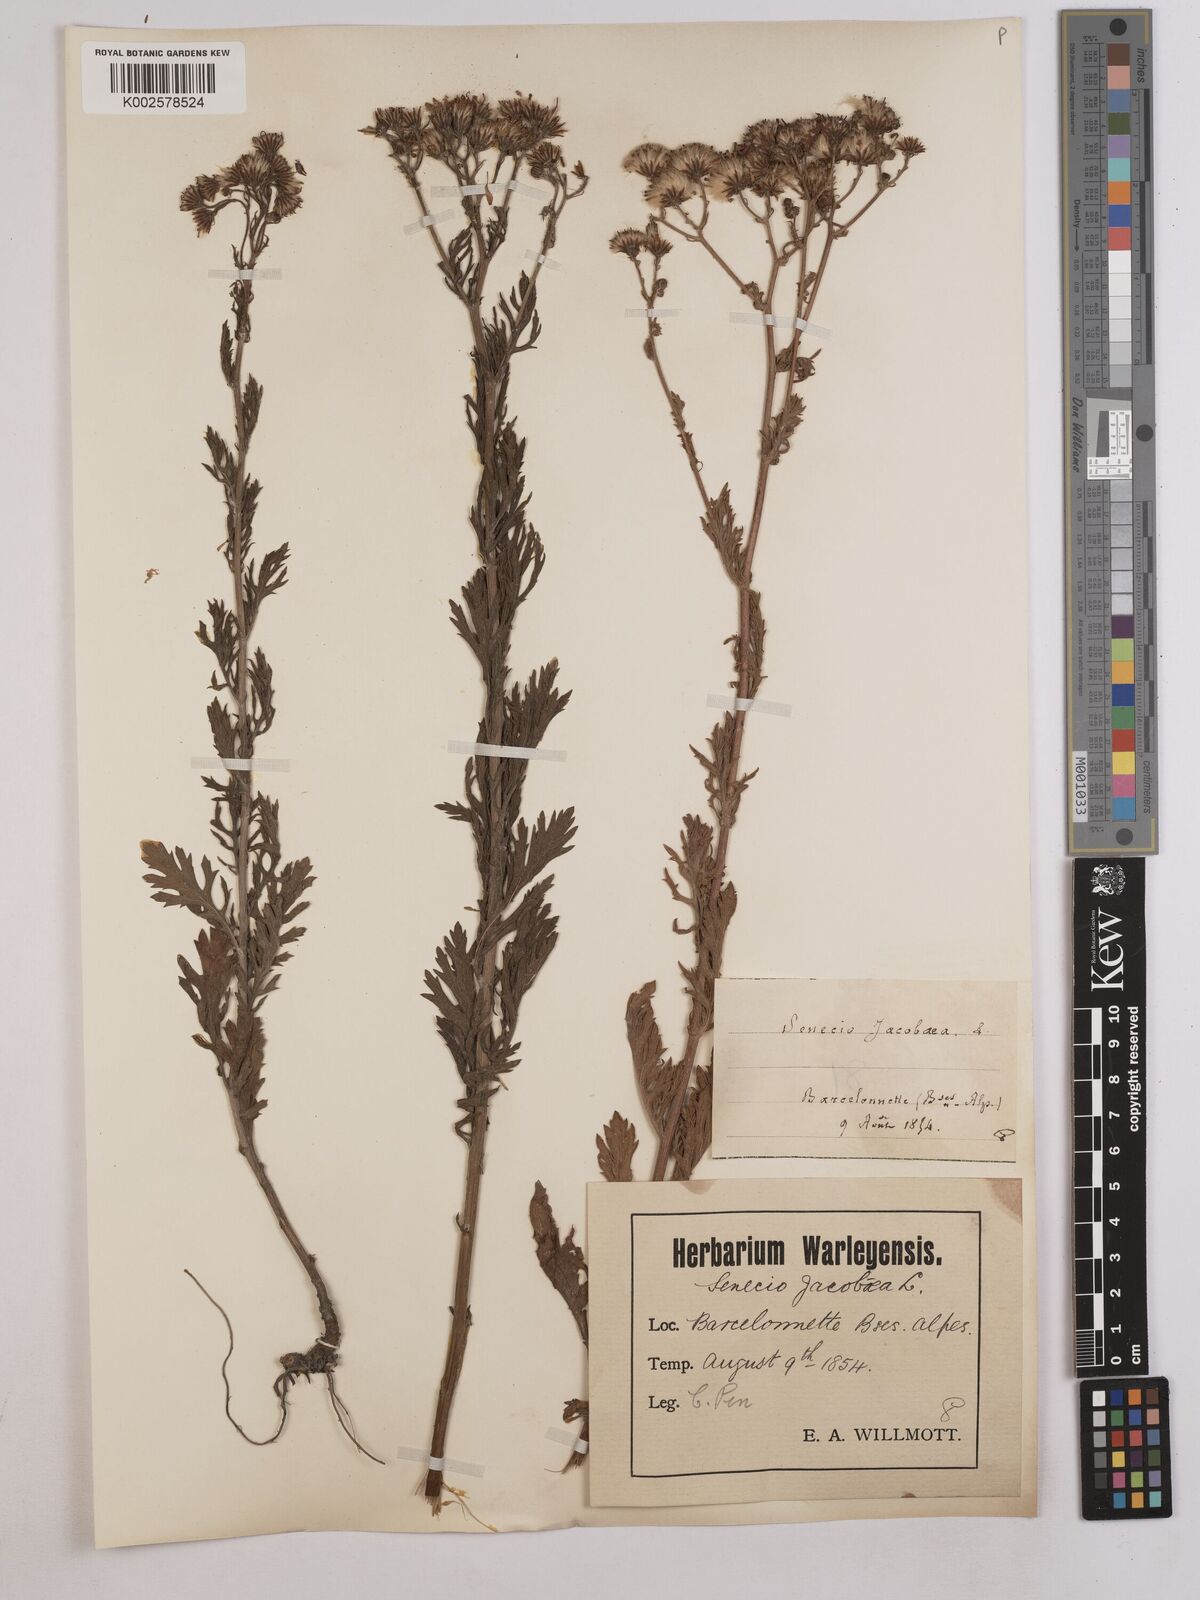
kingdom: Plantae
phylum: Tracheophyta
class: Magnoliopsida
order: Asterales
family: Asteraceae
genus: Jacobaea
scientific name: Jacobaea vulgaris
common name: Stinking willie
